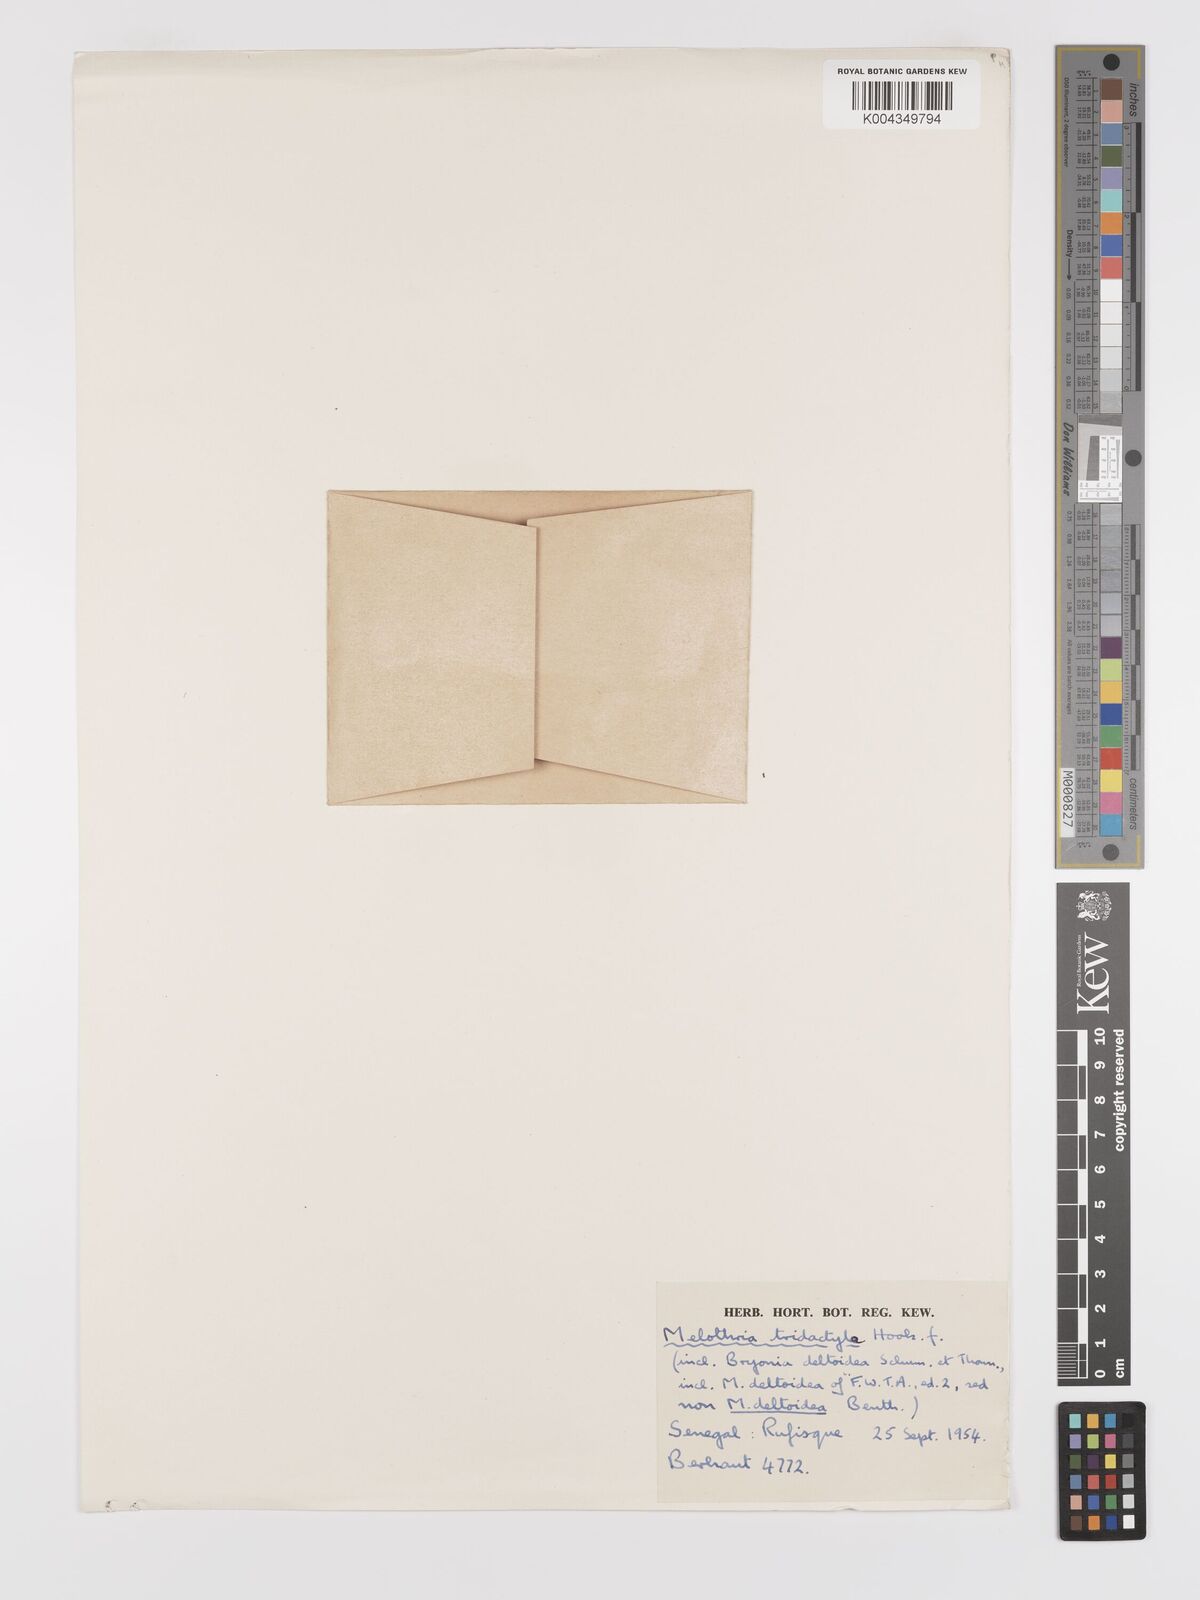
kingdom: Plantae
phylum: Tracheophyta
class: Magnoliopsida
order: Cucurbitales
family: Cucurbitaceae
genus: Zehneria
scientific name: Zehneria hallii
